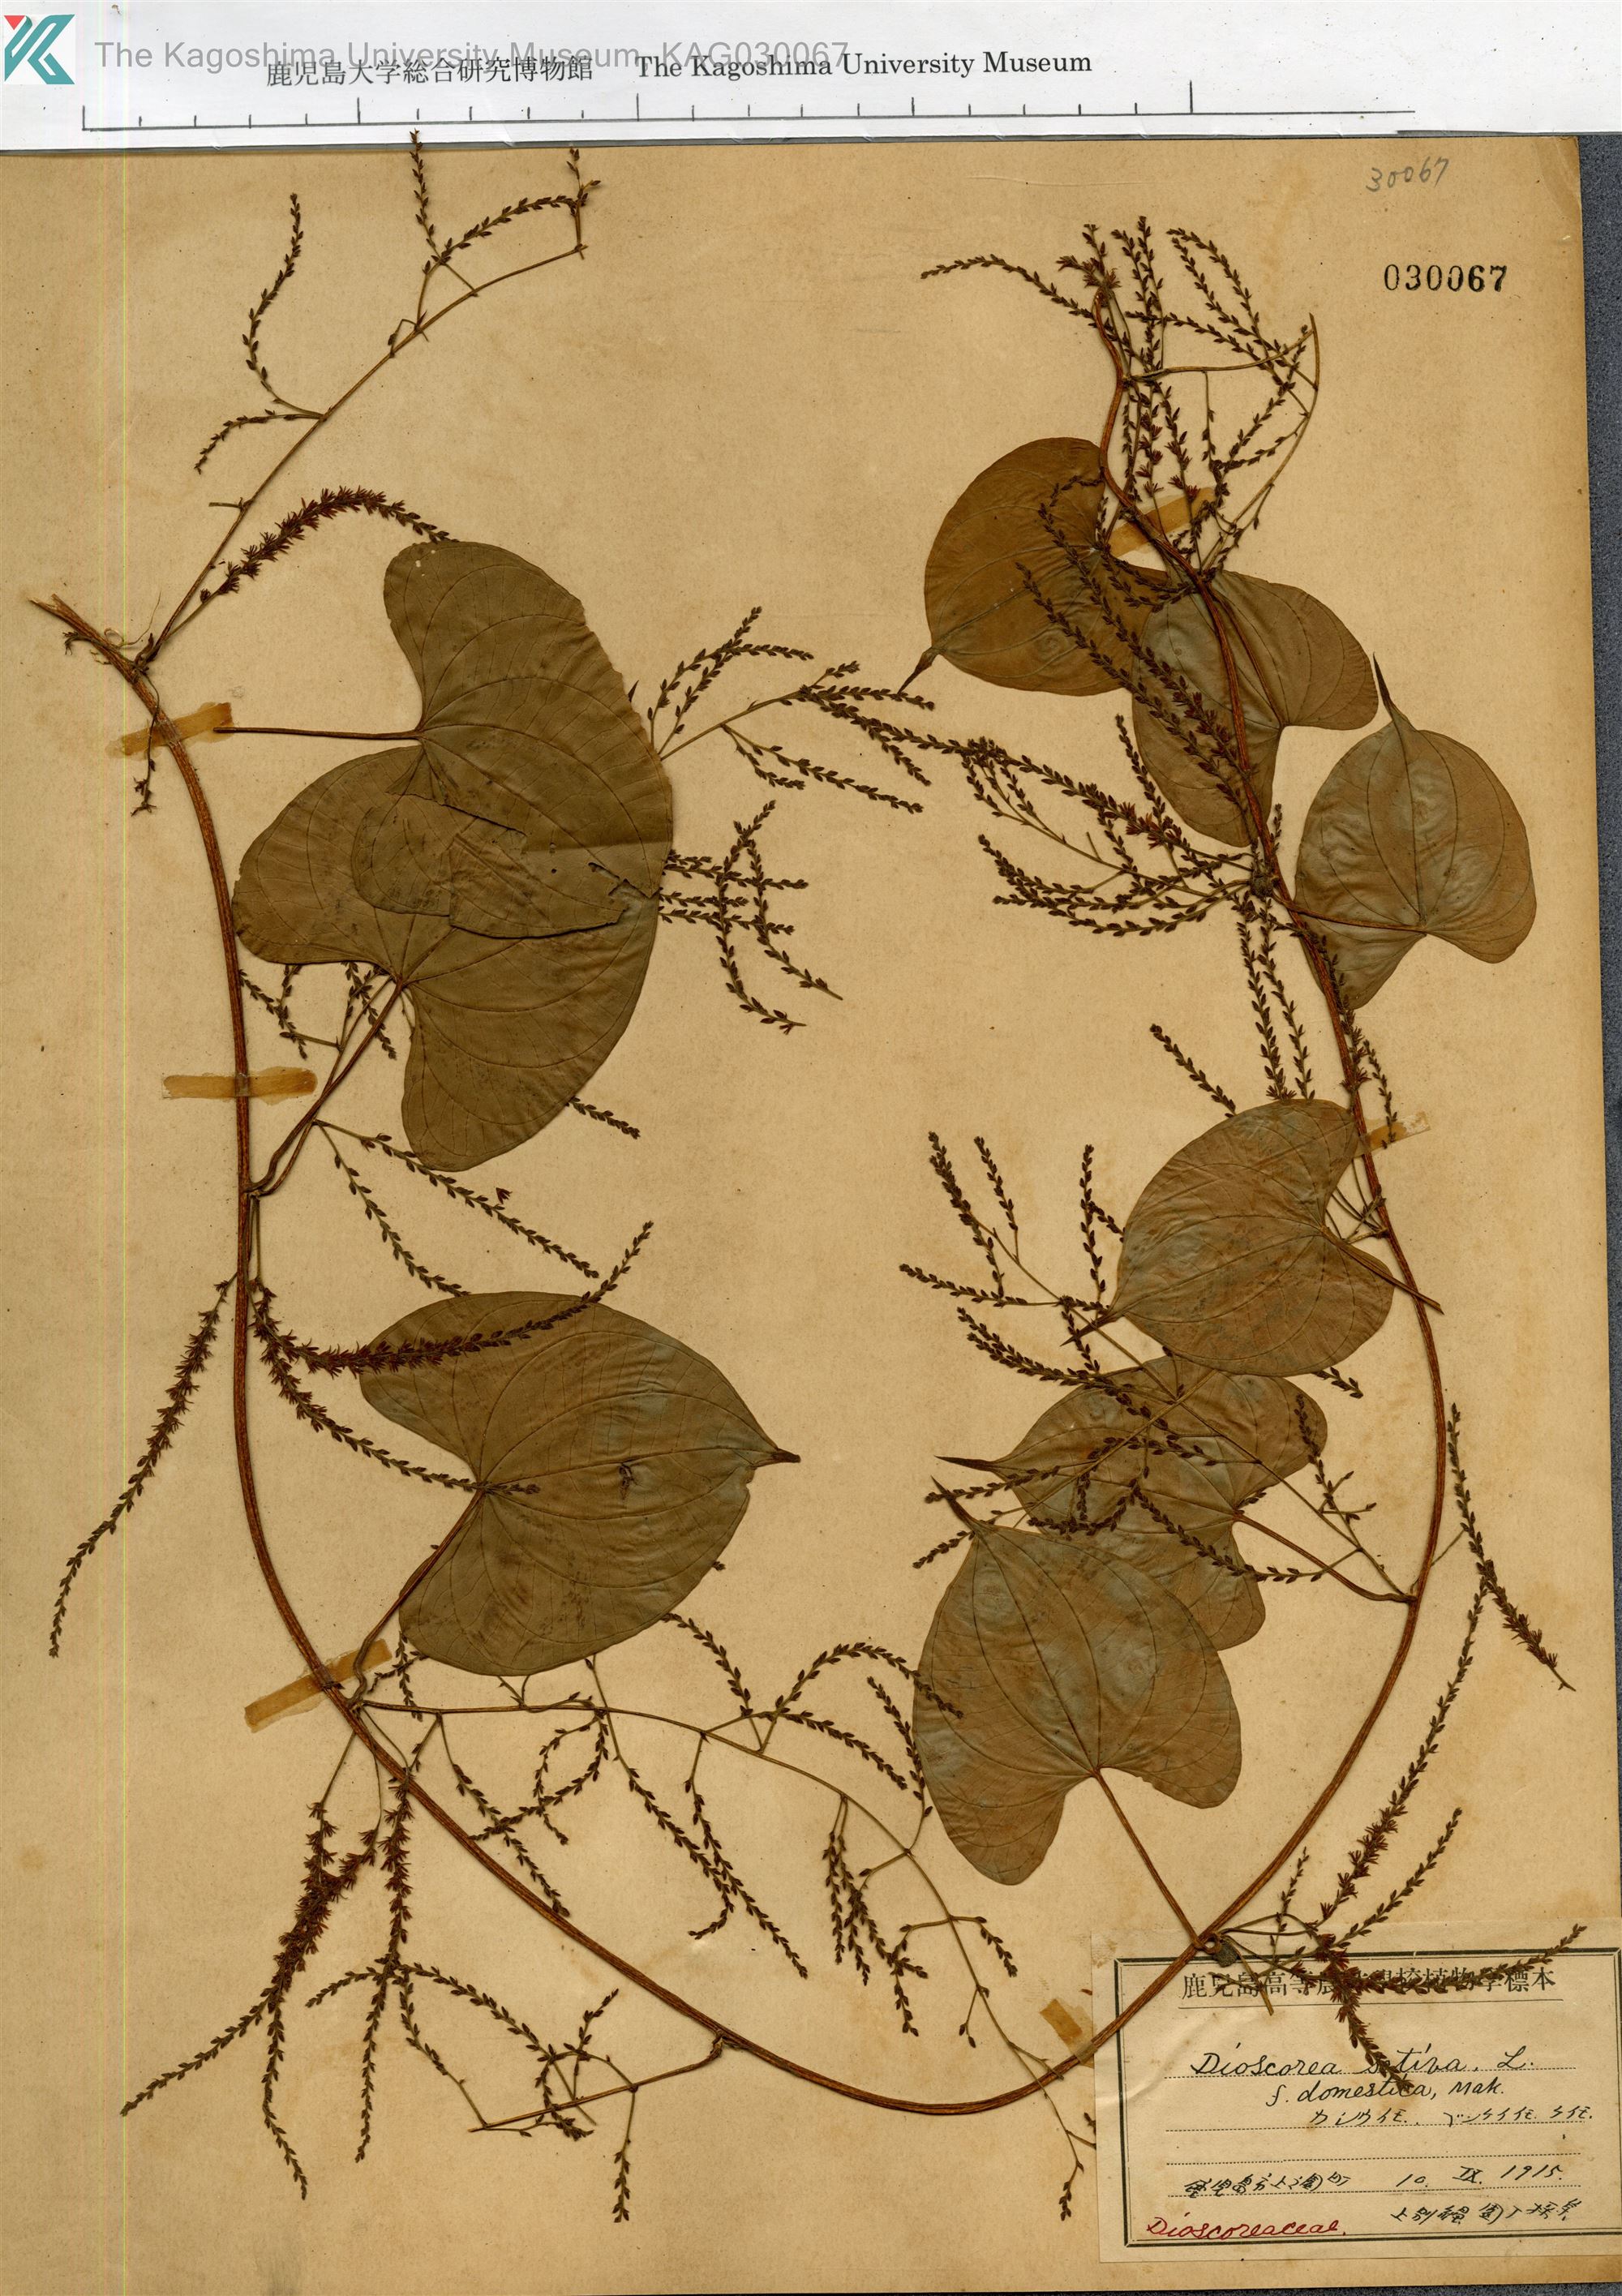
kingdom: Plantae
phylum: Tracheophyta
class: Liliopsida
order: Dioscoreales
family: Dioscoreaceae
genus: Dioscorea
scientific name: Dioscorea sativa
